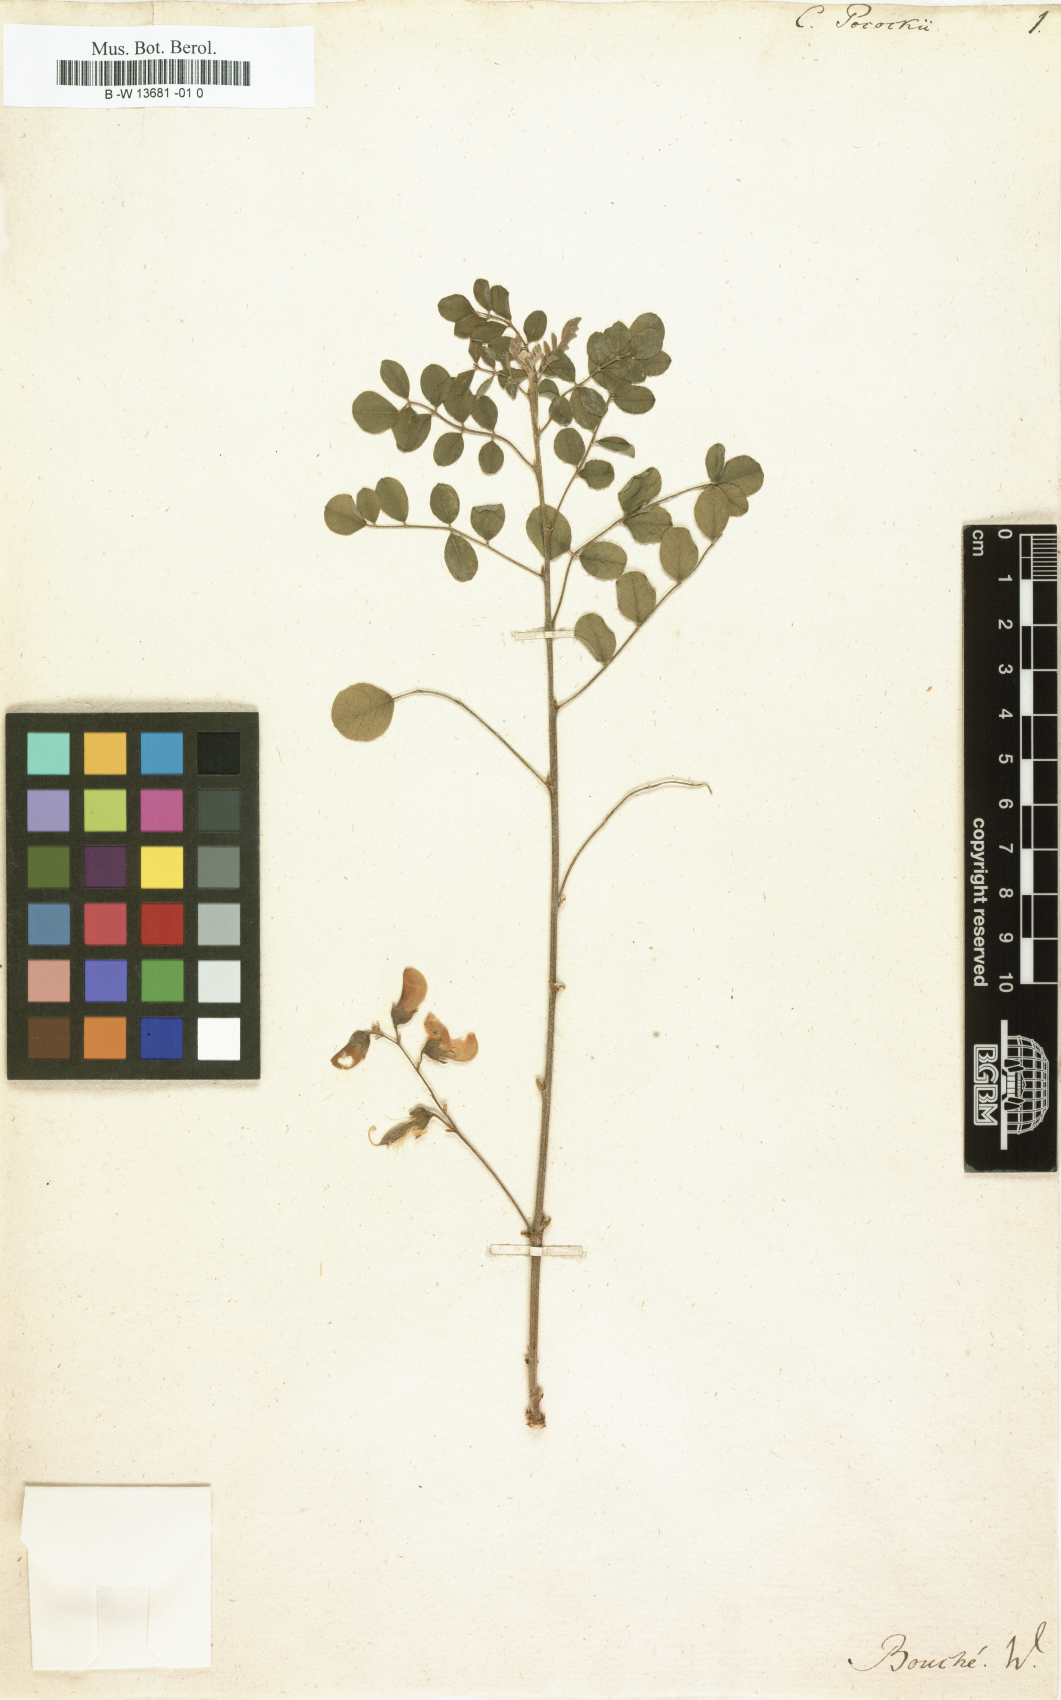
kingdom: Plantae
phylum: Tracheophyta
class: Magnoliopsida
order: Fabales
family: Fabaceae
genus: Colutea
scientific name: Colutea istria
